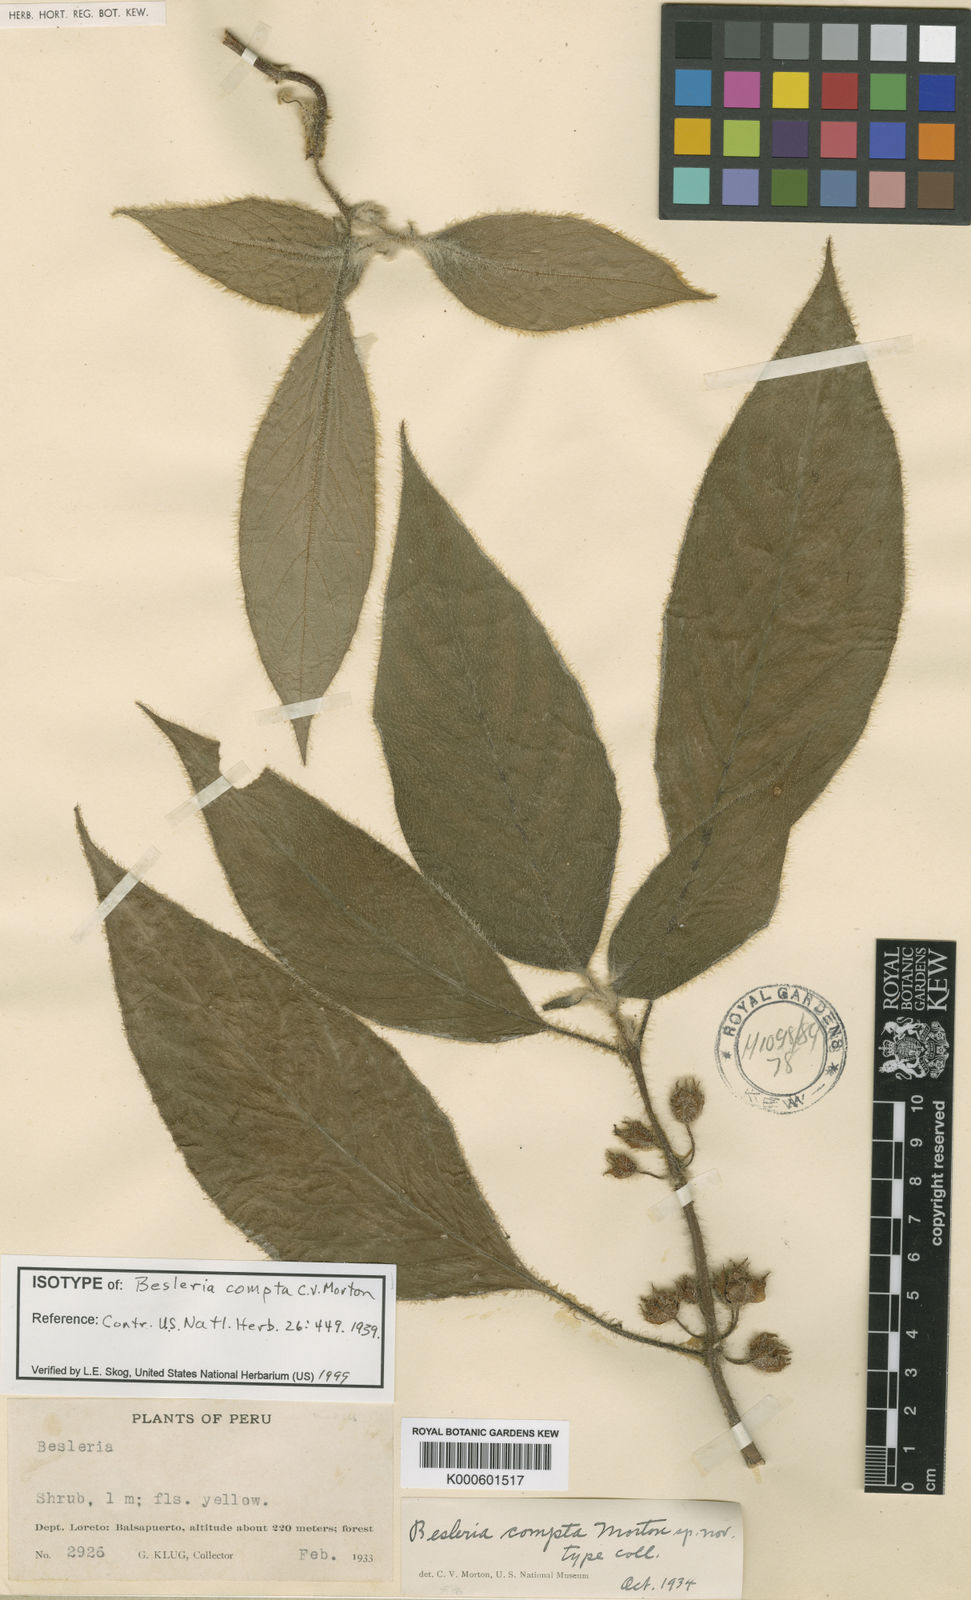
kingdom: Plantae
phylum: Tracheophyta
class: Magnoliopsida
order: Lamiales
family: Gesneriaceae
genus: Besleria
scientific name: Besleria compta
